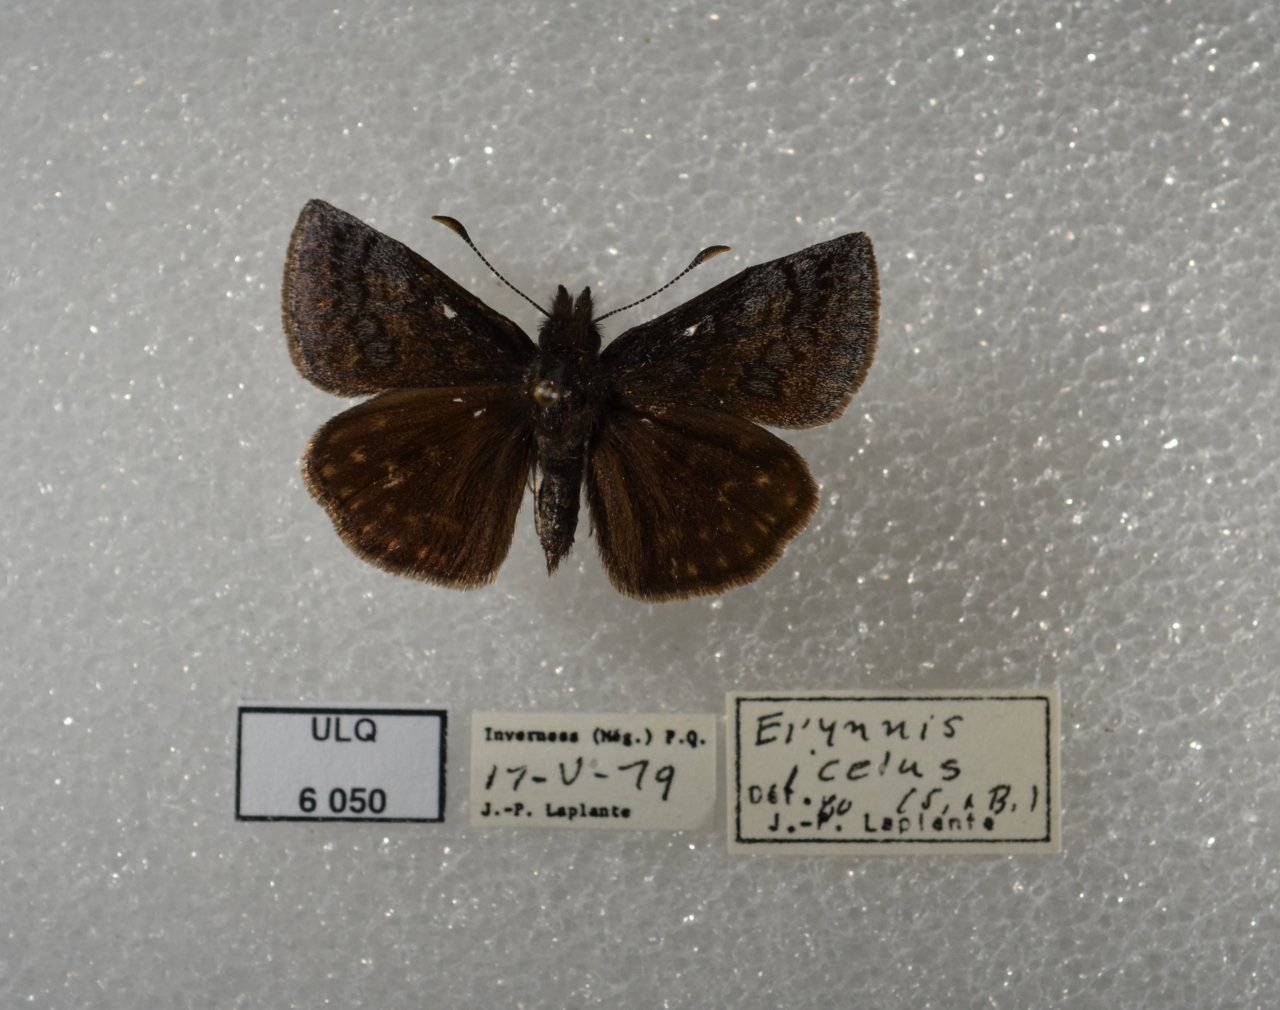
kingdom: Animalia
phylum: Arthropoda
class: Insecta
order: Lepidoptera
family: Hesperiidae
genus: Erynnis
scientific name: Erynnis icelus
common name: Dreamy Duskywing
